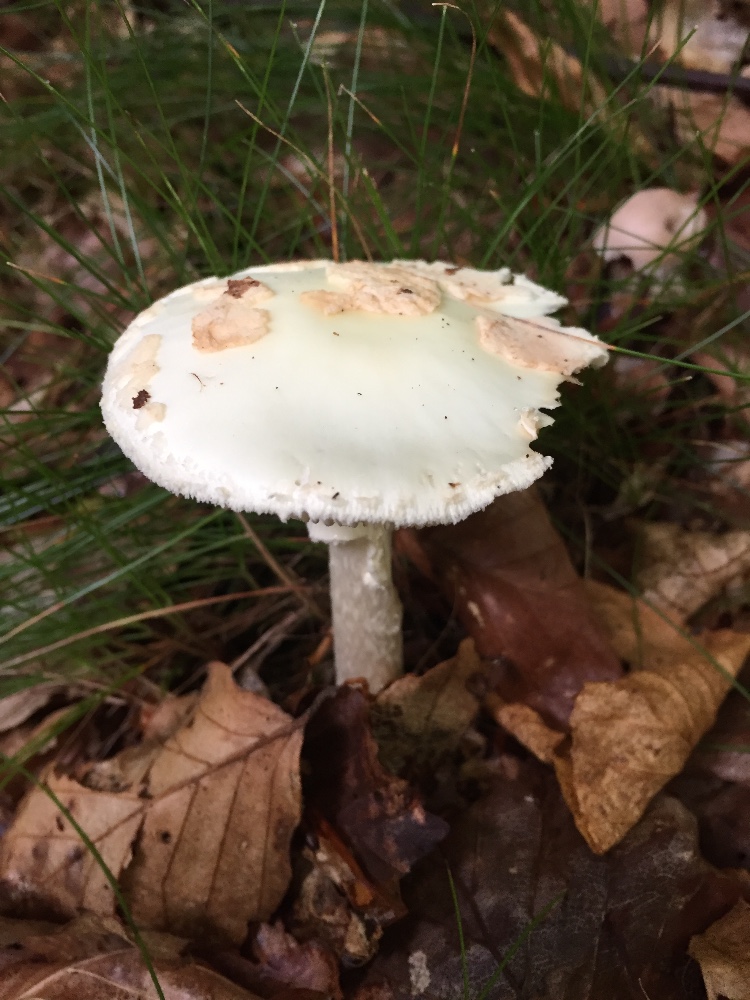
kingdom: Fungi
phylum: Basidiomycota
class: Agaricomycetes
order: Agaricales
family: Amanitaceae
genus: Amanita
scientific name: Amanita citrina
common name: kugleknoldet fluesvamp
